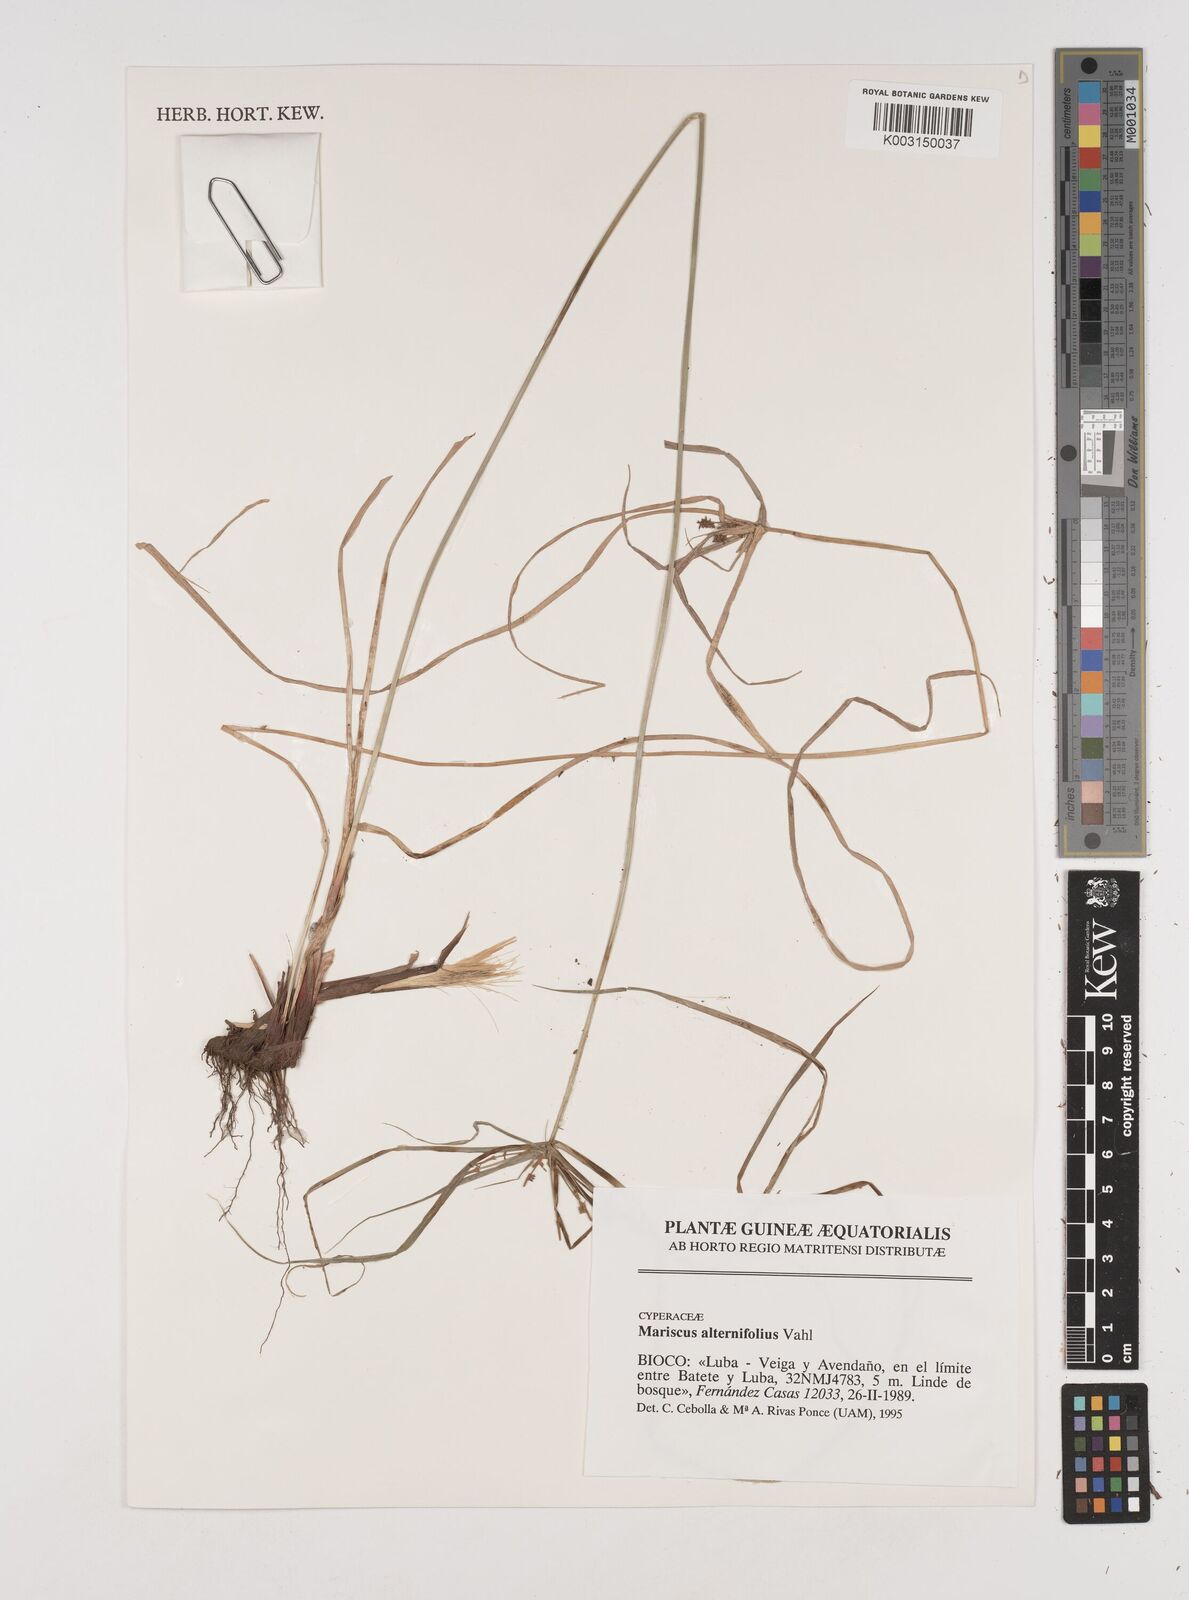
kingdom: Plantae
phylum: Tracheophyta
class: Liliopsida
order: Poales
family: Cyperaceae
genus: Cyperus
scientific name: Cyperus cyperoides
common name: Pacific island flat sedge
